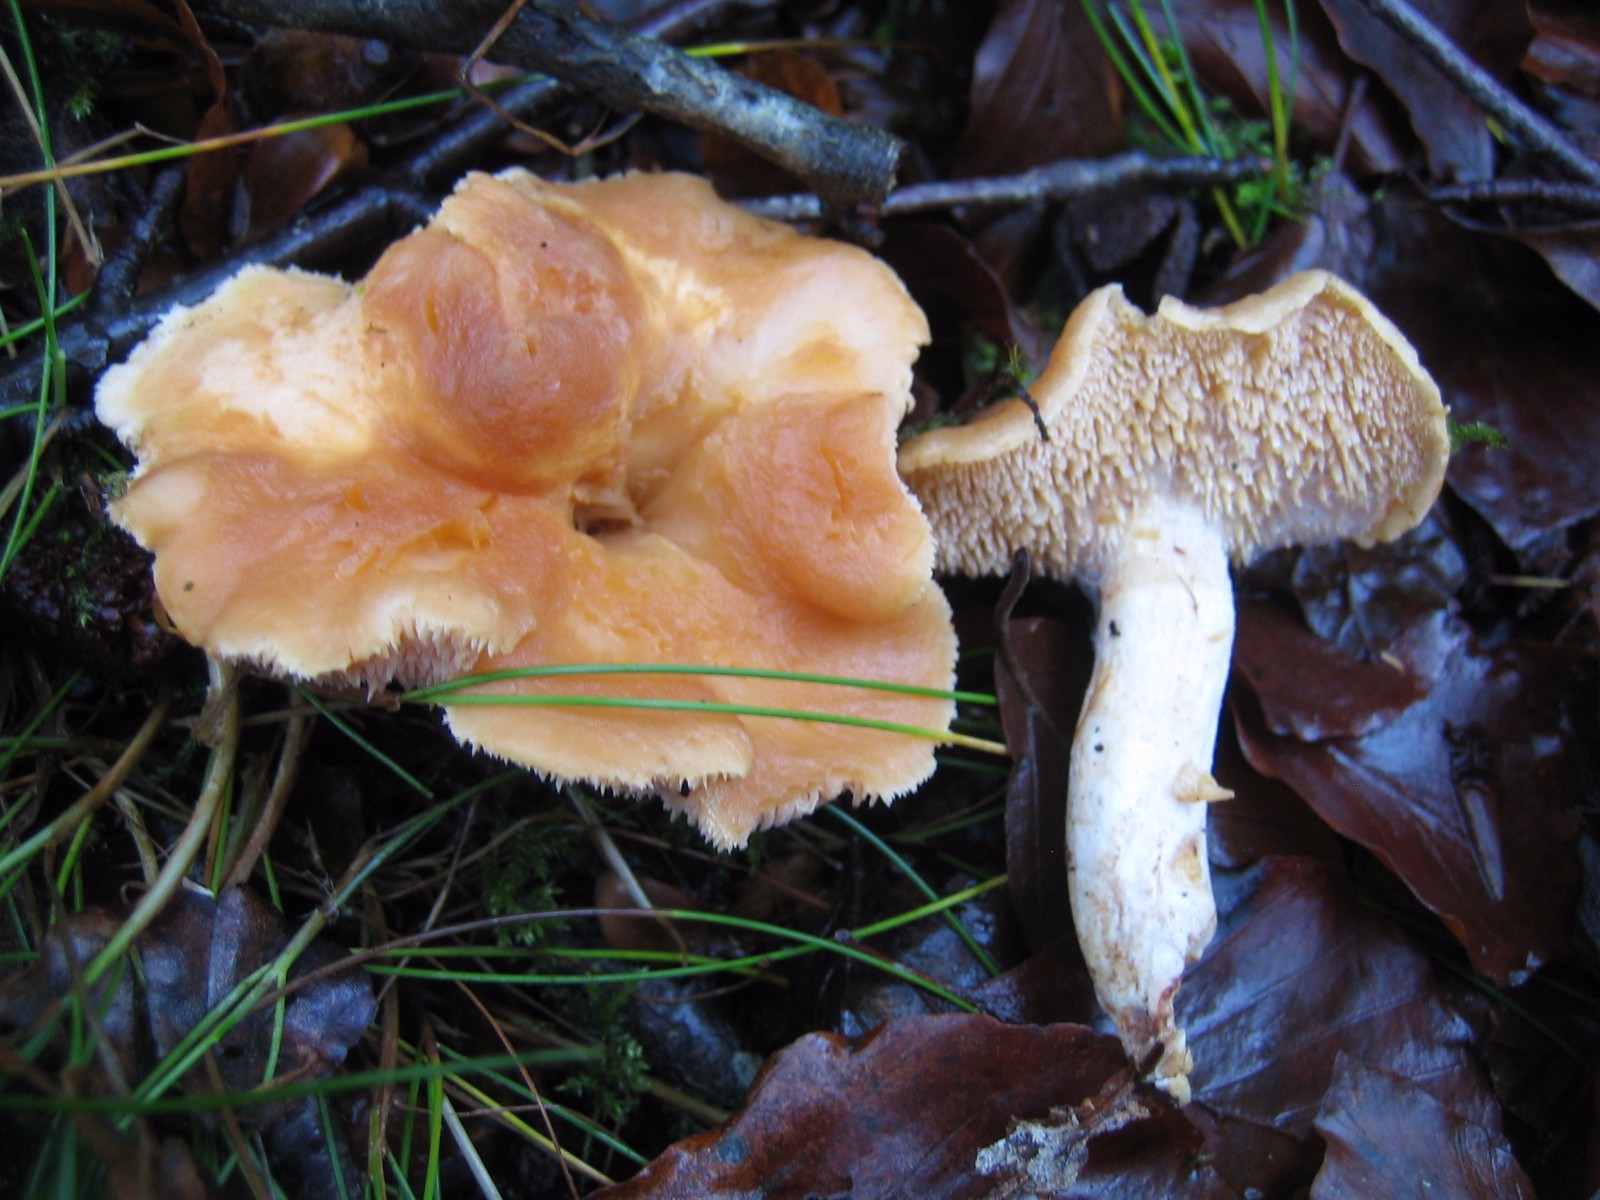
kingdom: Fungi
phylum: Basidiomycota
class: Agaricomycetes
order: Cantharellales
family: Hydnaceae
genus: Hydnum
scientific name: Hydnum
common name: pigsvamp
